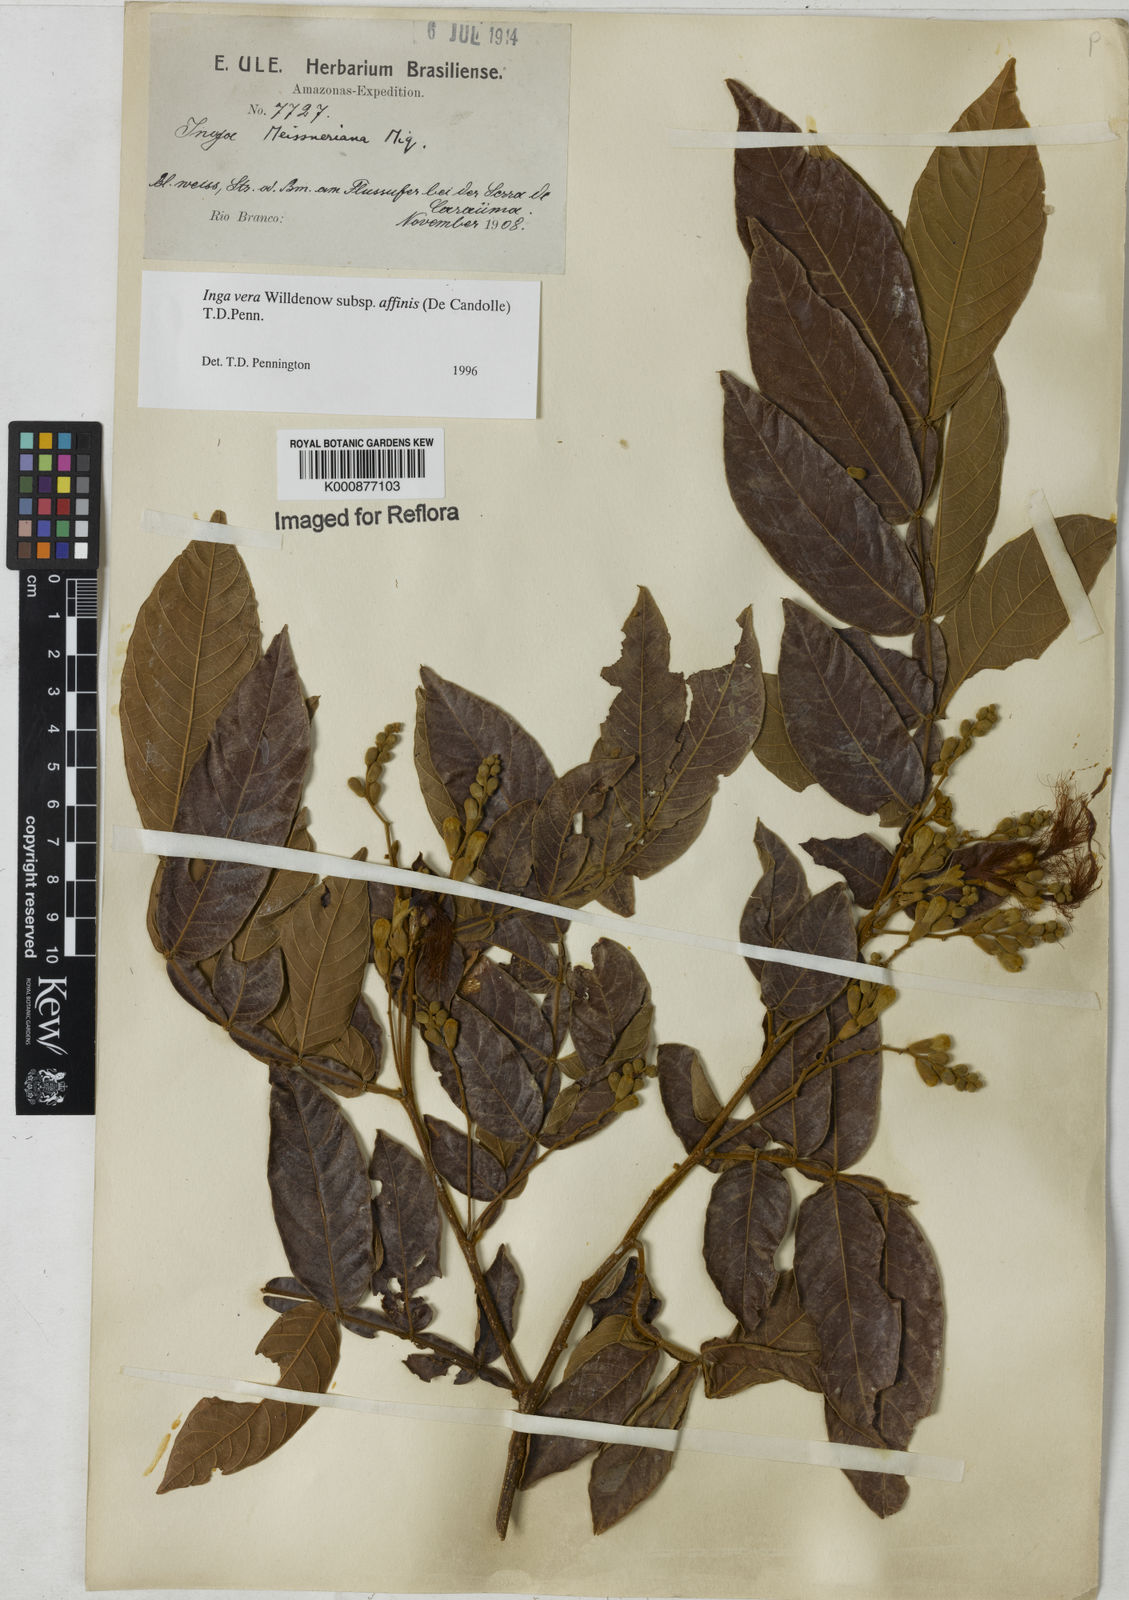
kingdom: Plantae
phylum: Tracheophyta
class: Magnoliopsida
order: Fabales
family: Fabaceae
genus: Inga
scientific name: Inga affinis
